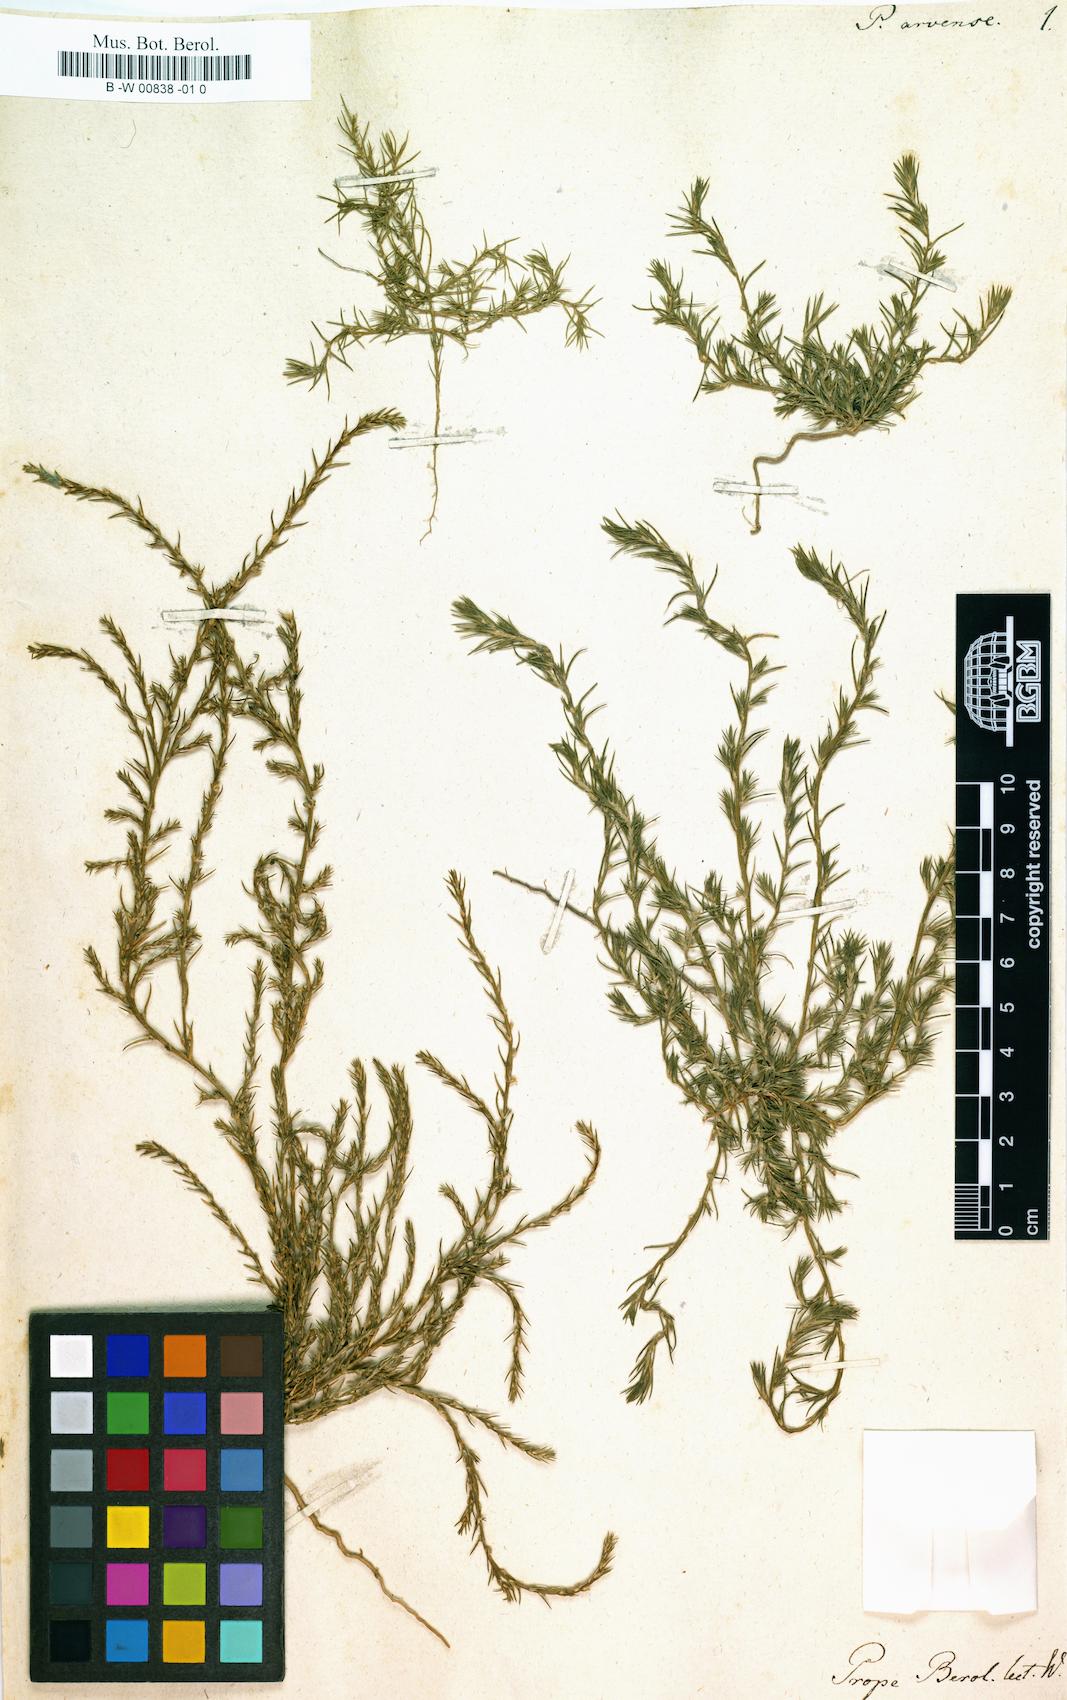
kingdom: Plantae
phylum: Tracheophyta
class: Magnoliopsida
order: Caryophyllales
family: Amaranthaceae
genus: Polycnemum
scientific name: Polycnemum arvense
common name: Soft needleleaf
